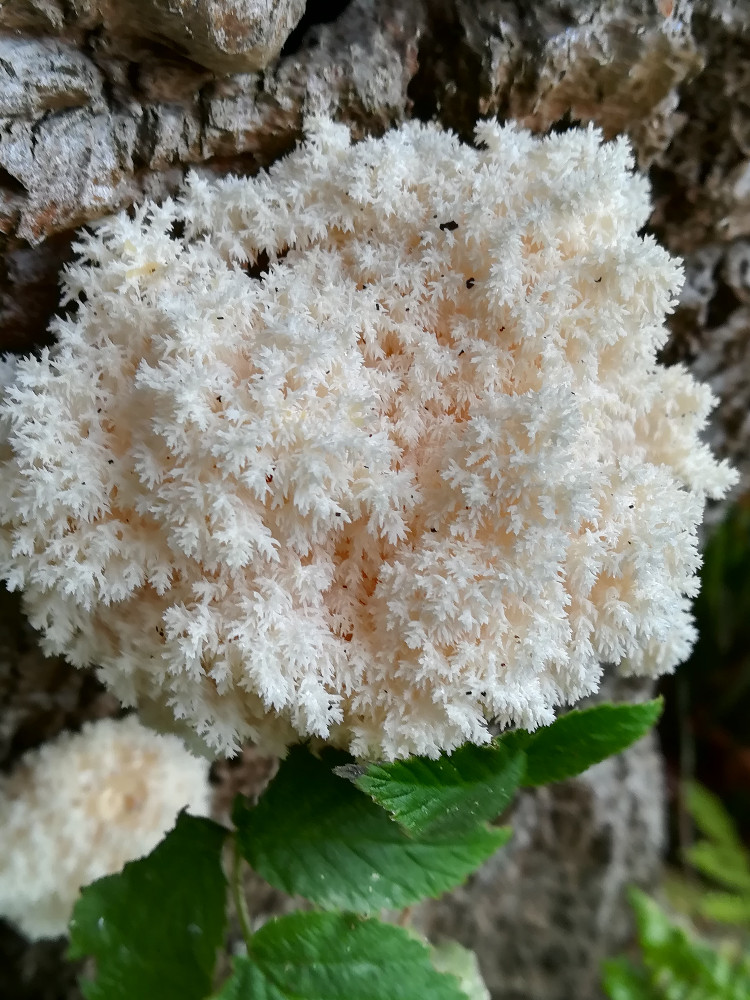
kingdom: Fungi
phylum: Basidiomycota
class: Agaricomycetes
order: Russulales
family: Hericiaceae
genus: Hericium
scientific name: Hericium coralloides
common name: koralpigsvamp
